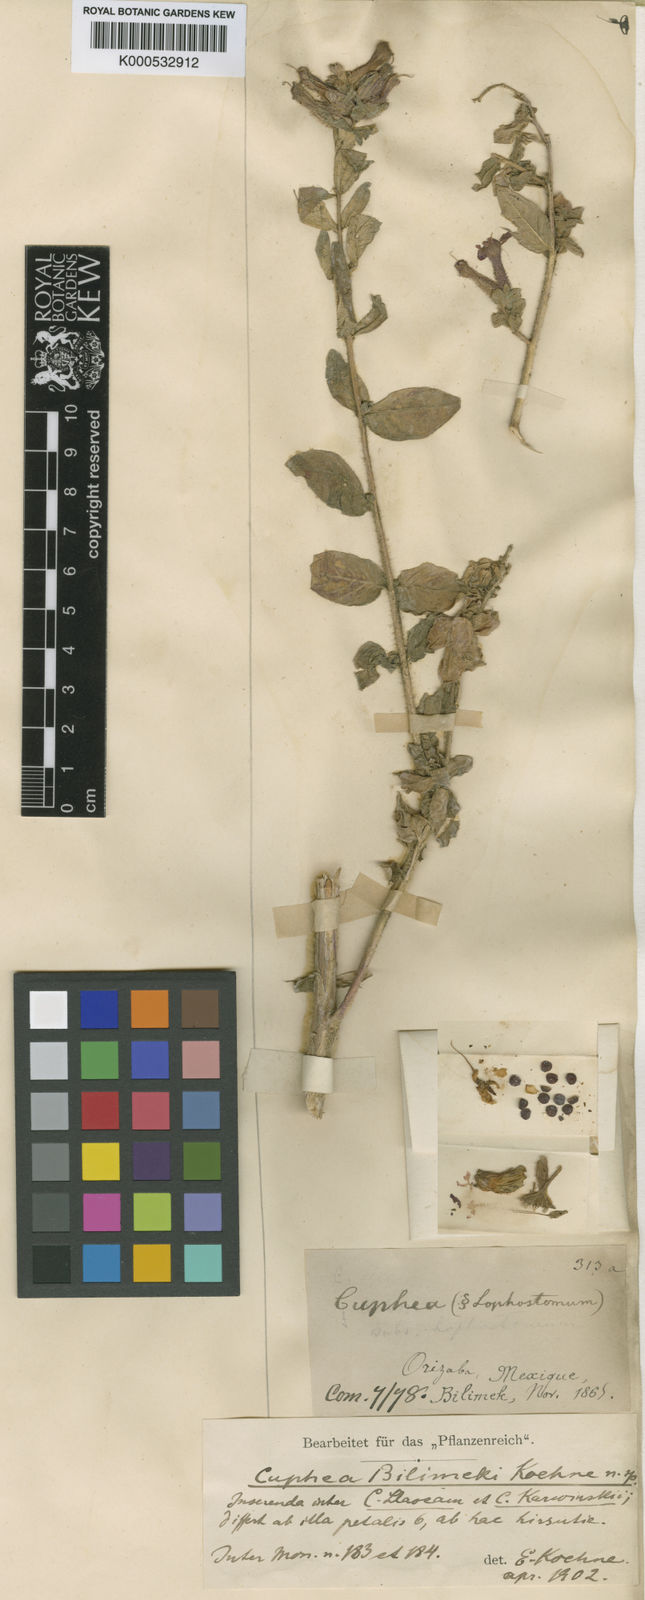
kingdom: Plantae
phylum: Tracheophyta
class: Magnoliopsida
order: Myrtales
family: Lythraceae
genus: Cuphea
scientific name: Cuphea procumbens
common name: Creeping waxweed
